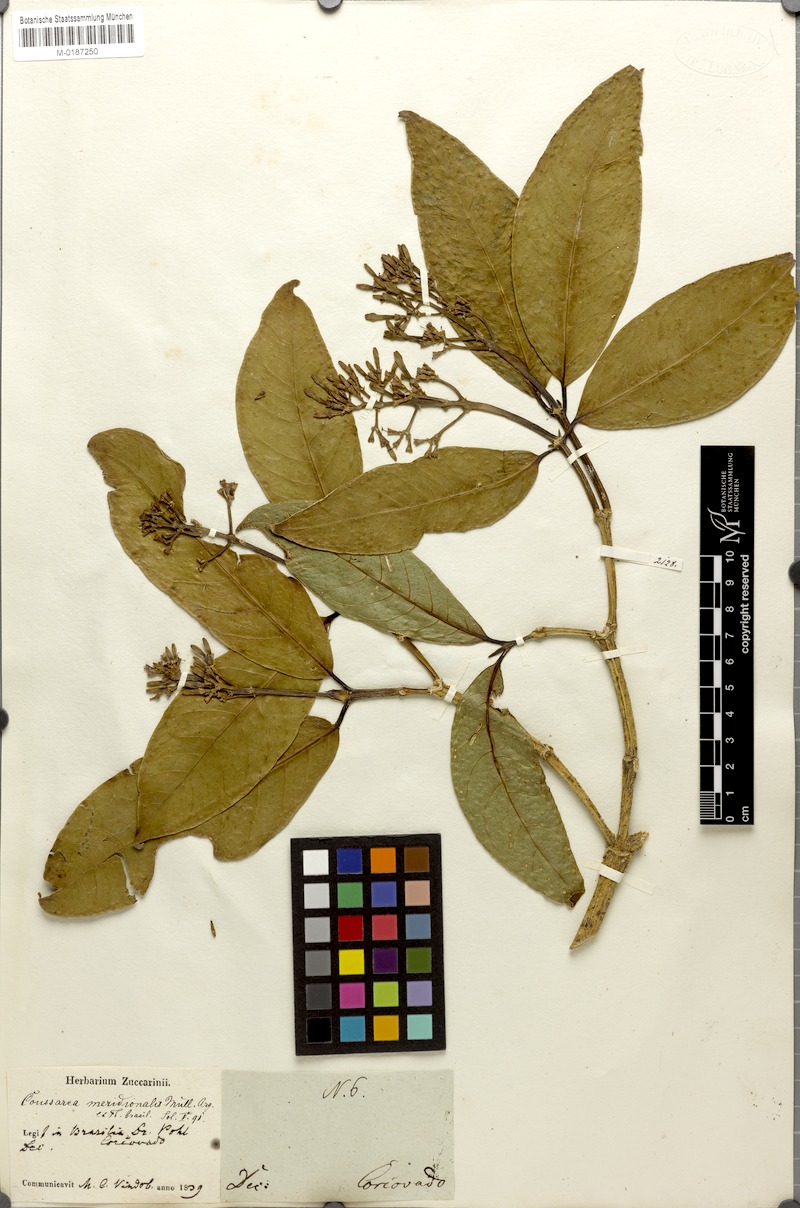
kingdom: Plantae
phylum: Tracheophyta
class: Magnoliopsida
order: Gentianales
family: Rubiaceae
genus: Coussarea
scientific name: Coussarea meridionalis
